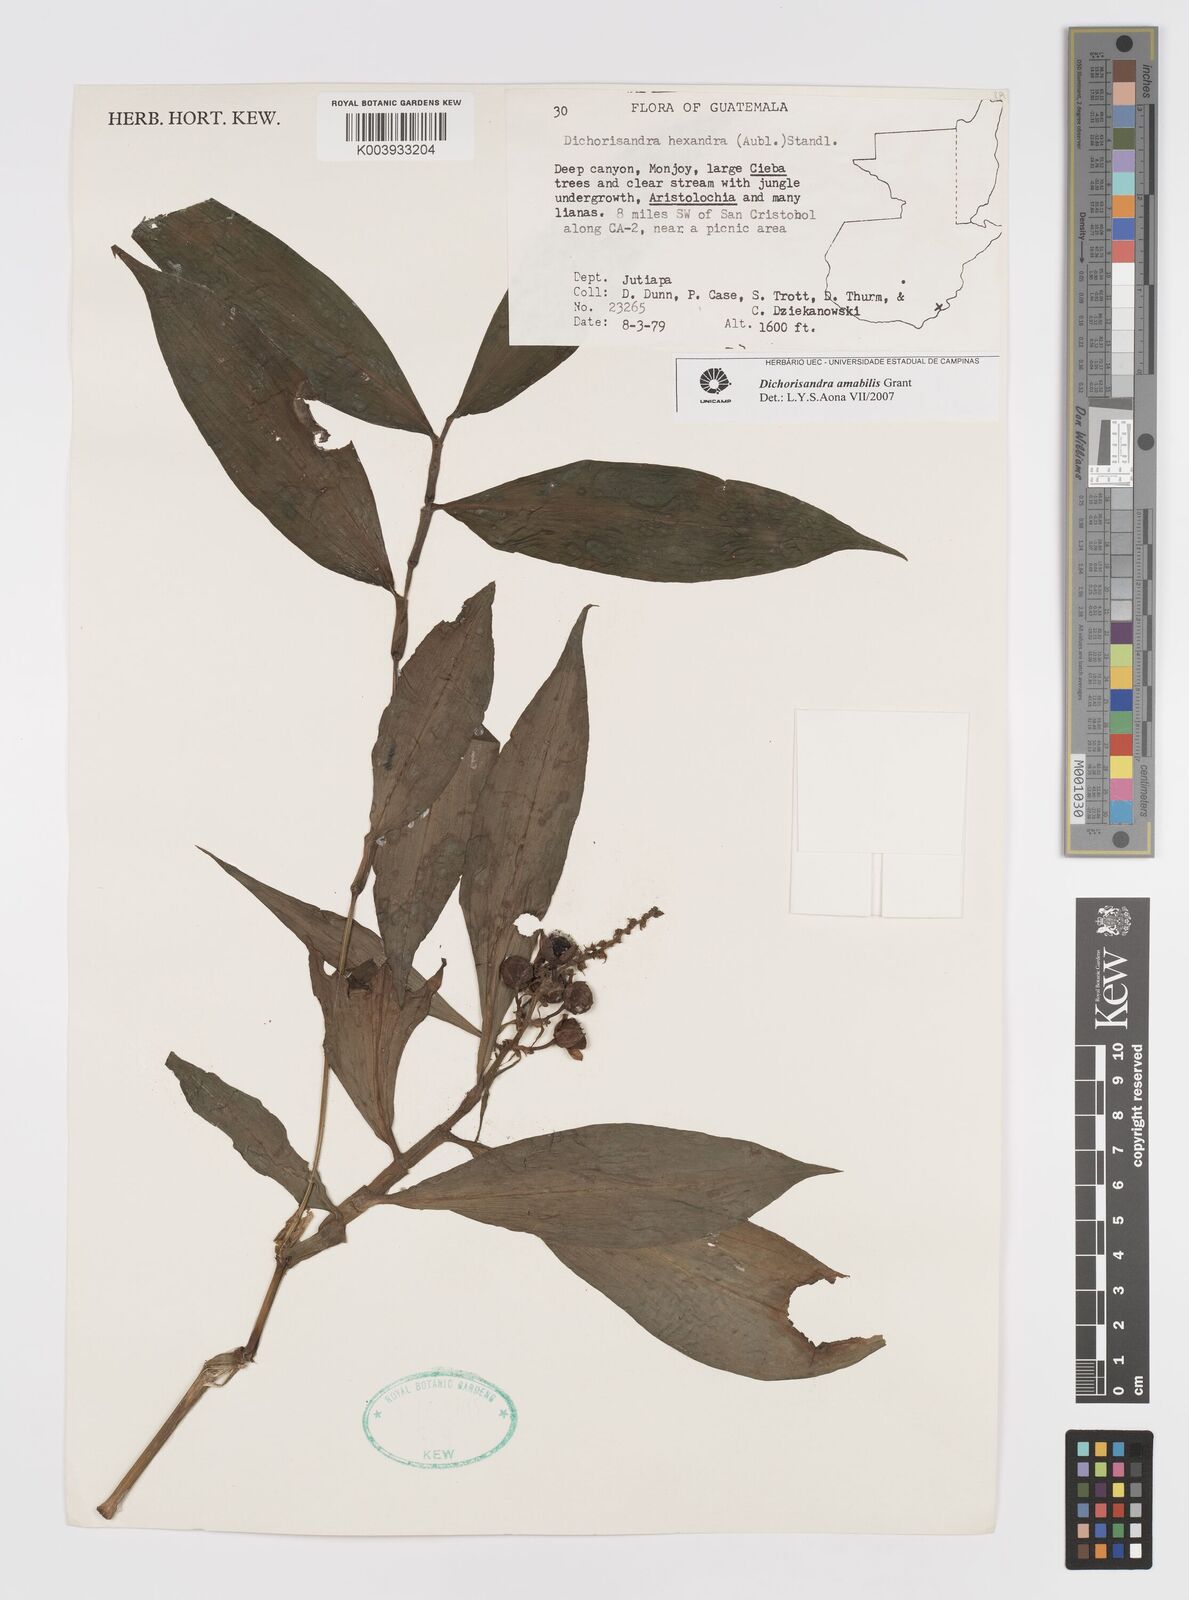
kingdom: Plantae
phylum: Tracheophyta
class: Liliopsida
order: Commelinales
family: Commelinaceae
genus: Dichorisandra
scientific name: Dichorisandra amabilis
